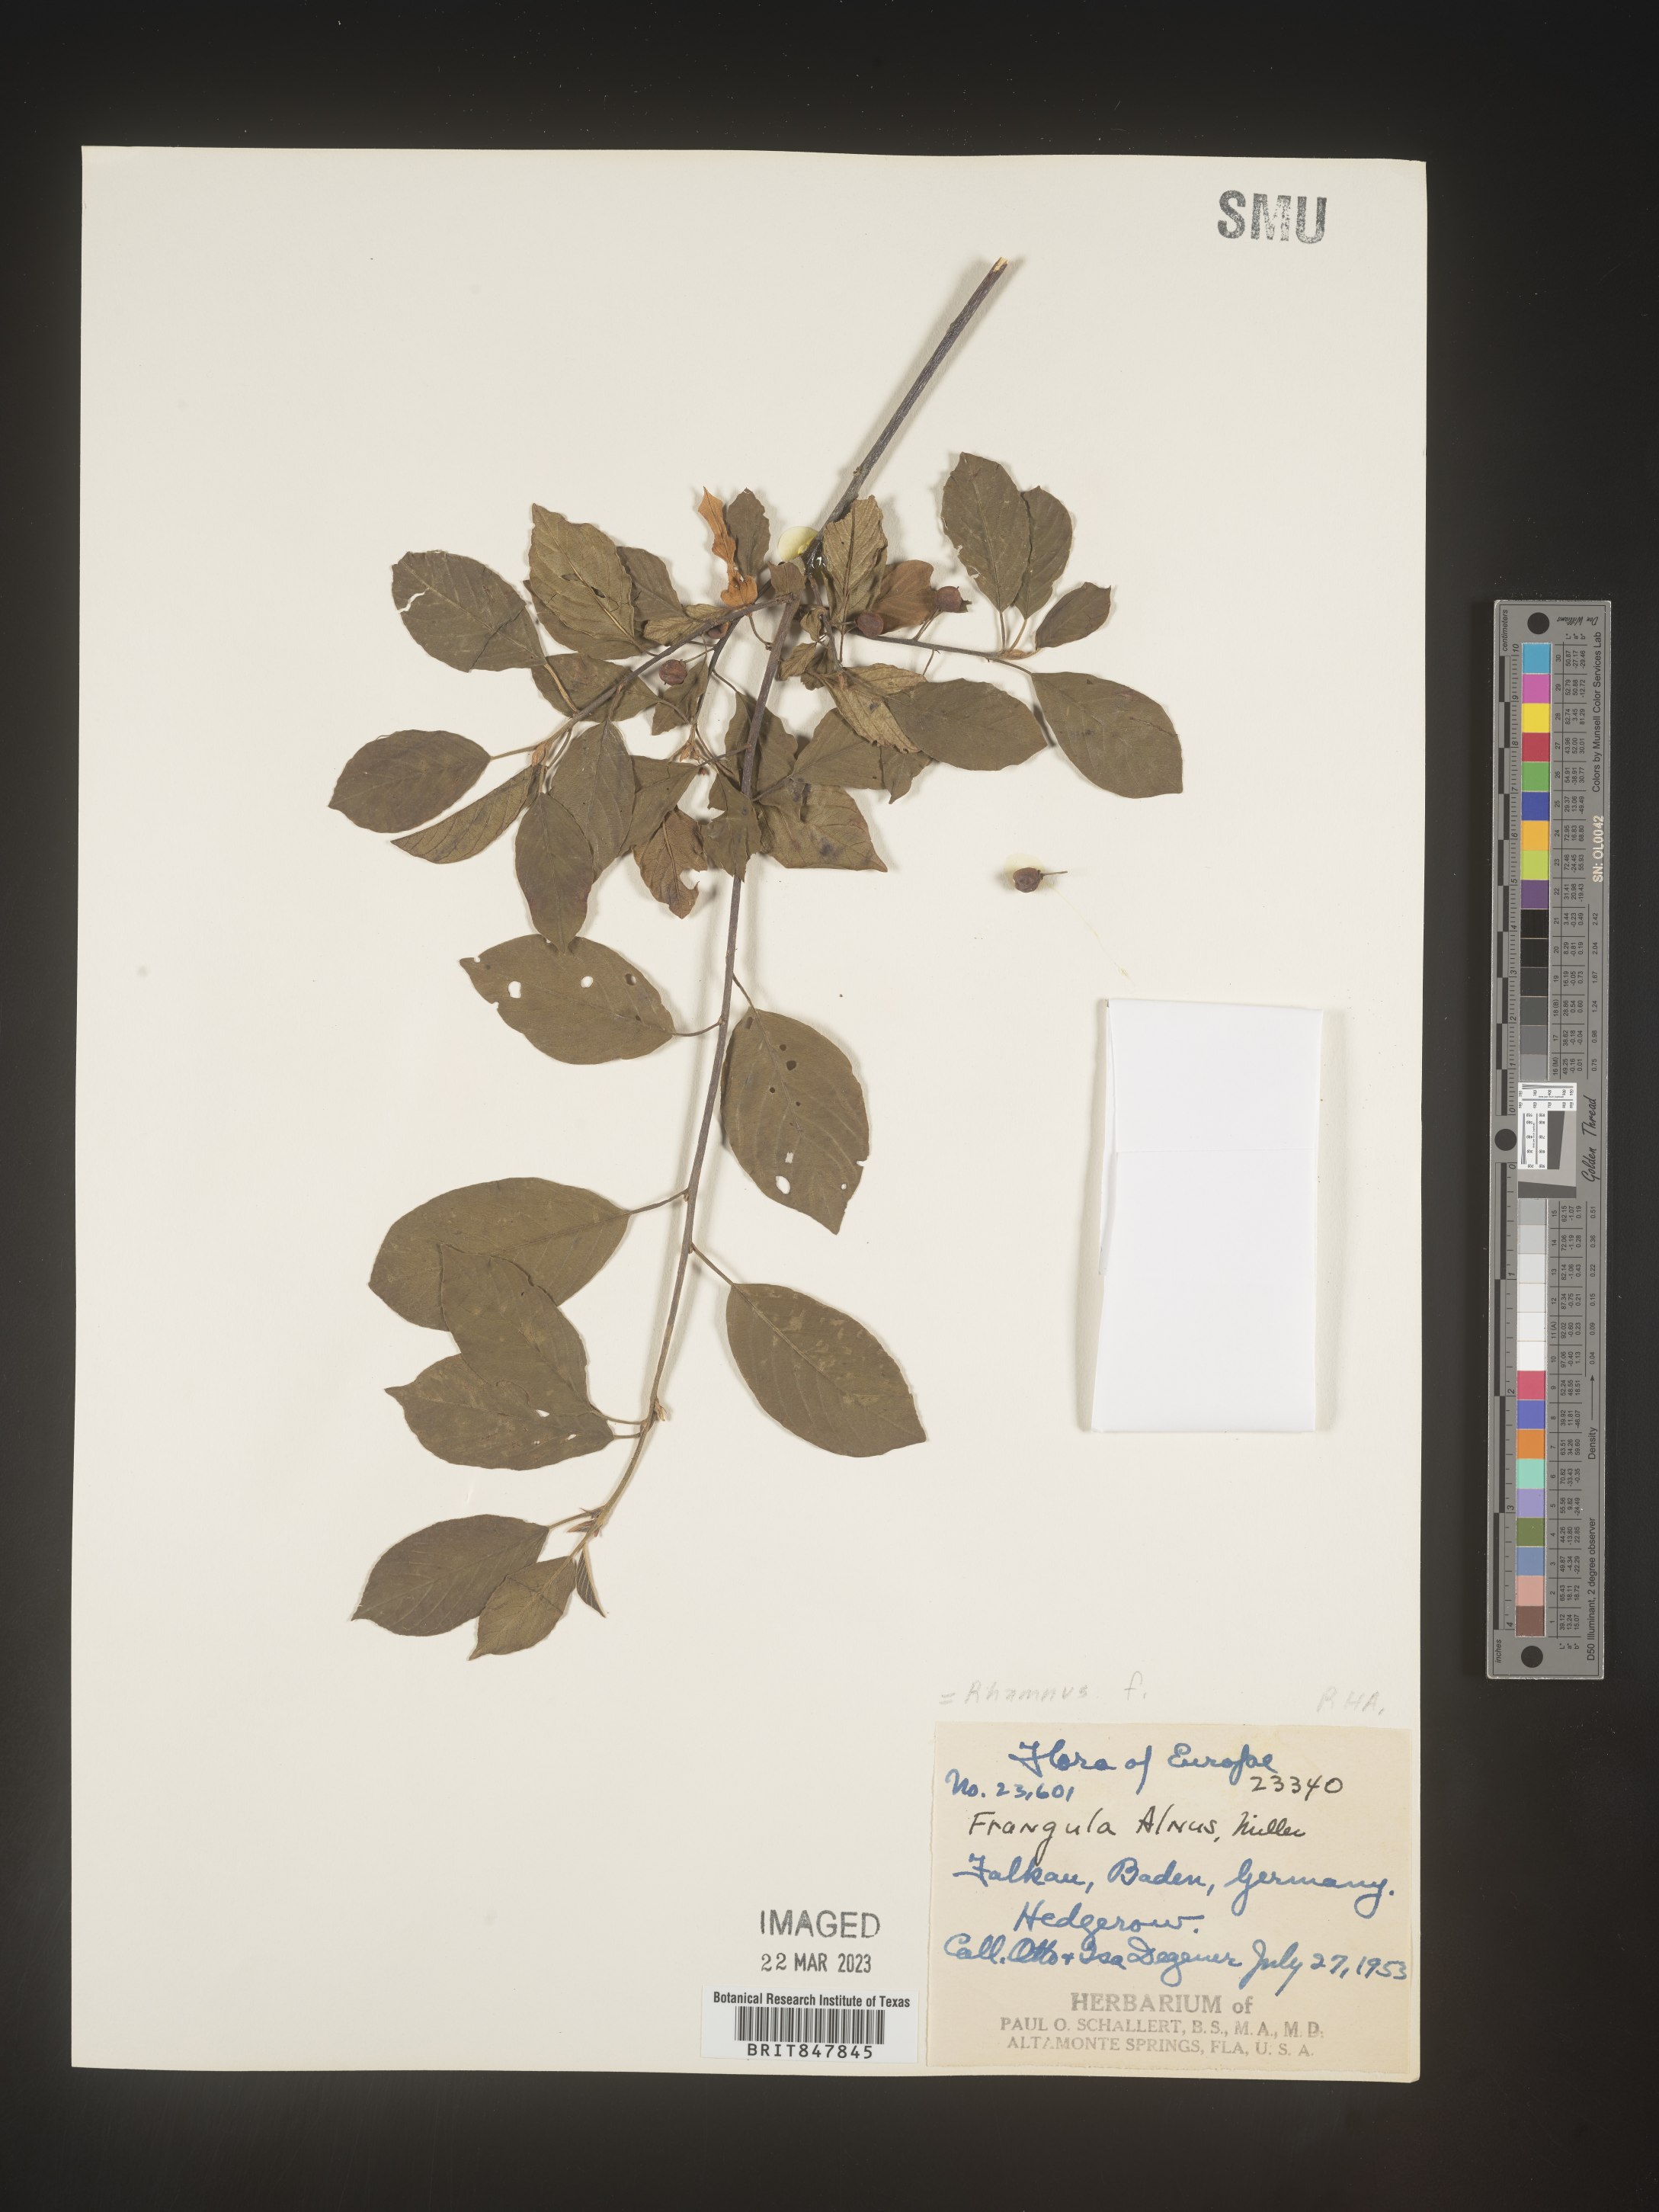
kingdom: Plantae
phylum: Tracheophyta
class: Magnoliopsida
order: Rosales
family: Rhamnaceae
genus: Rhamnus
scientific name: Rhamnus
